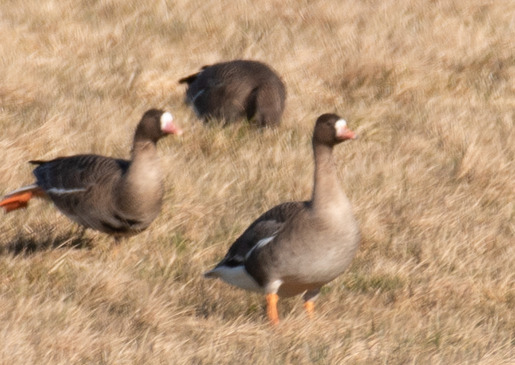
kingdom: Animalia
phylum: Chordata
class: Aves
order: Anseriformes
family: Anatidae
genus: Anser
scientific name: Anser albifrons
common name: Blisgås
